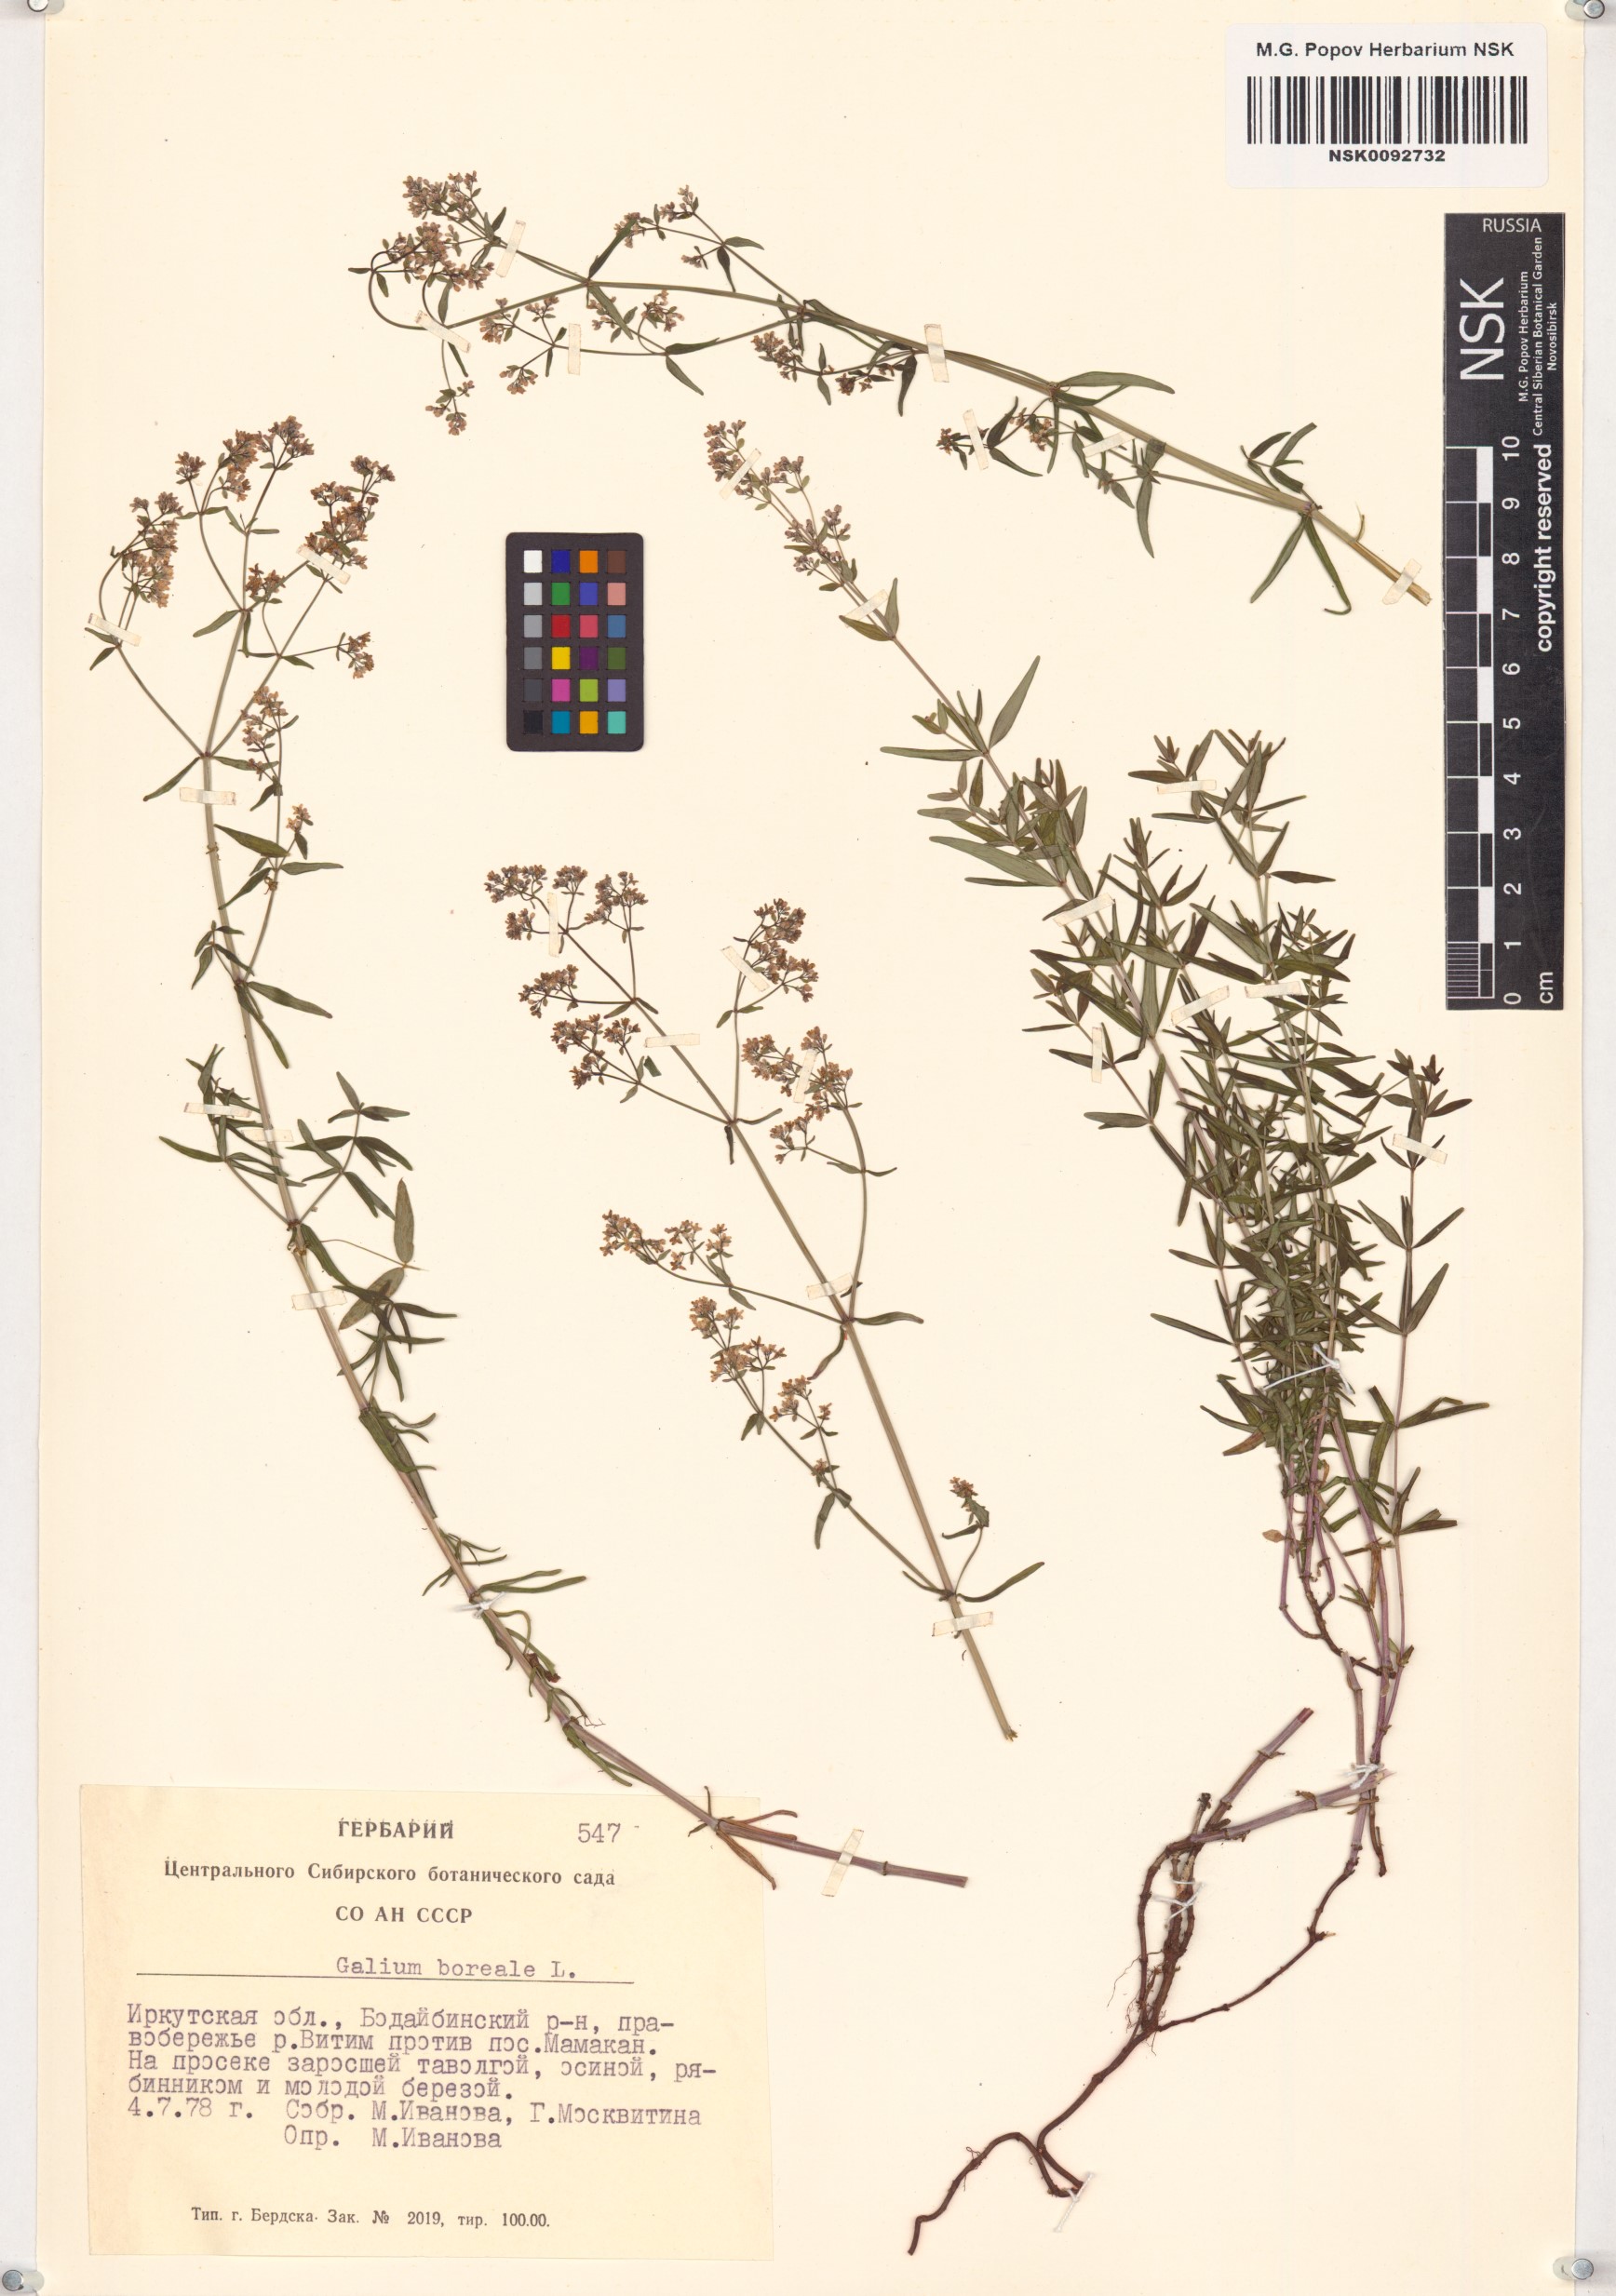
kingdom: Plantae
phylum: Tracheophyta
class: Magnoliopsida
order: Gentianales
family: Rubiaceae
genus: Galium
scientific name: Galium boreale
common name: Northern bedstraw
